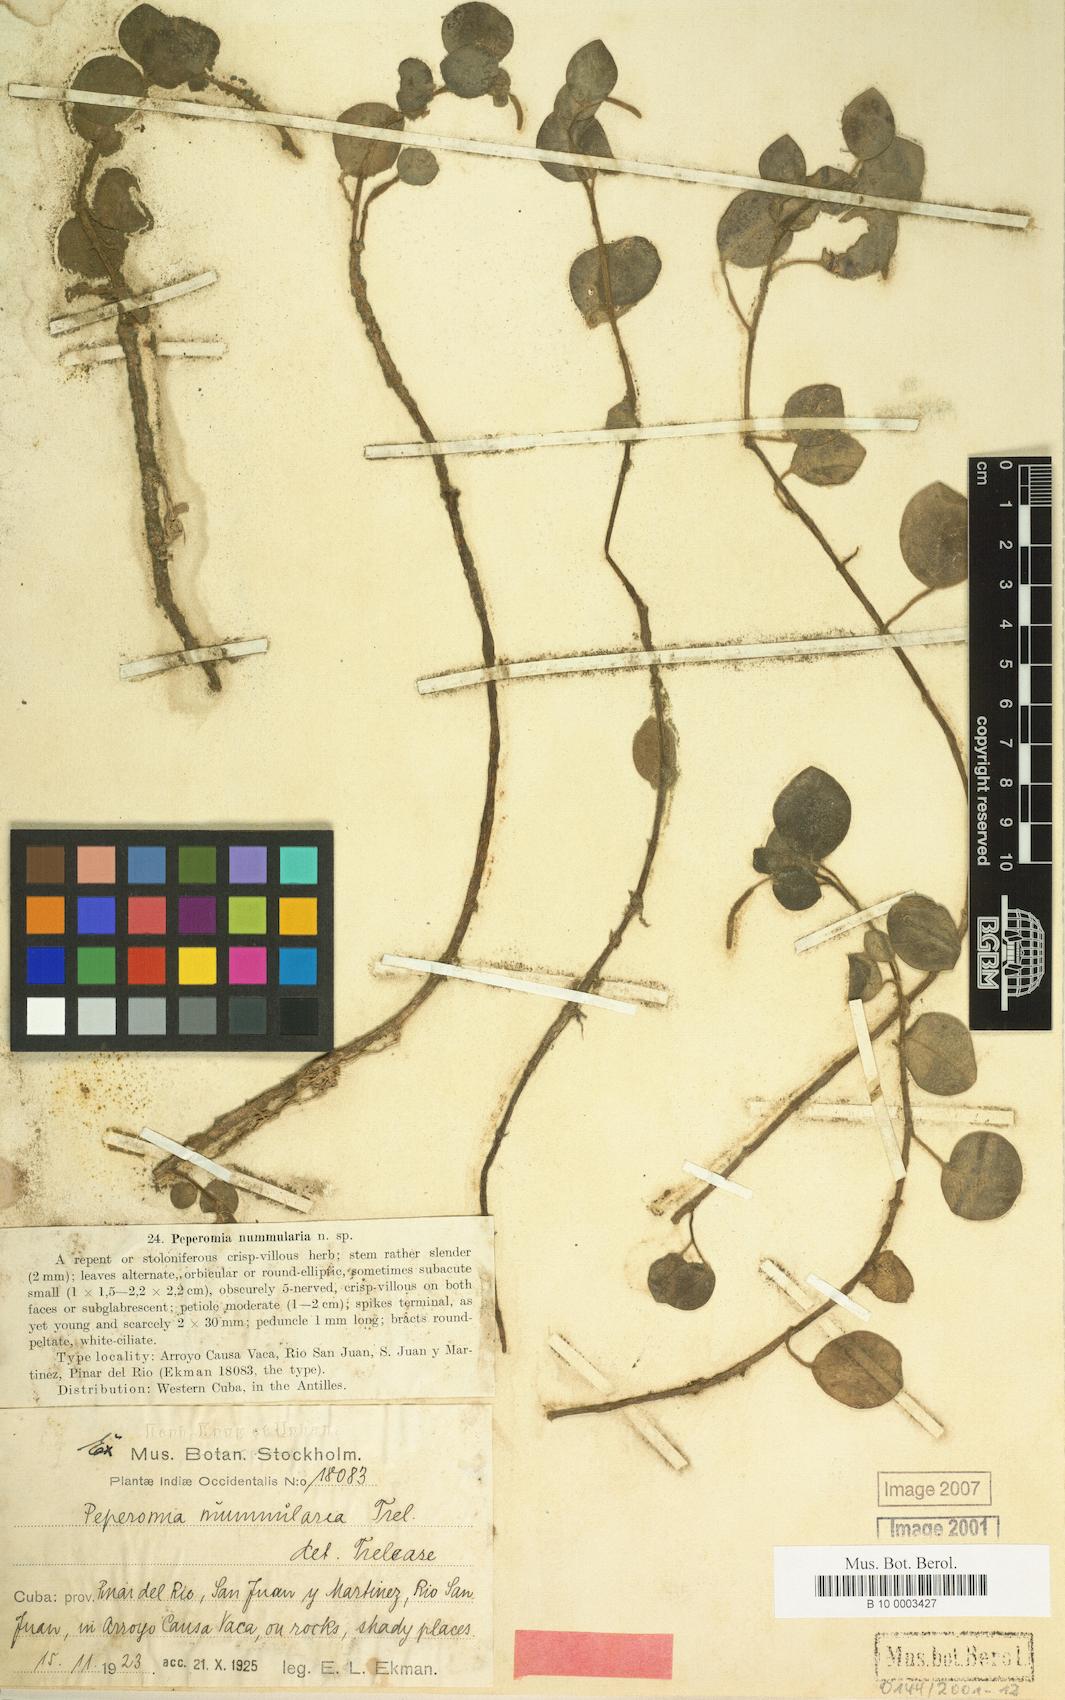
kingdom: Plantae
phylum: Tracheophyta
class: Magnoliopsida
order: Piperales
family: Piperaceae
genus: Peperomia
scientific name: Peperomia hirta
